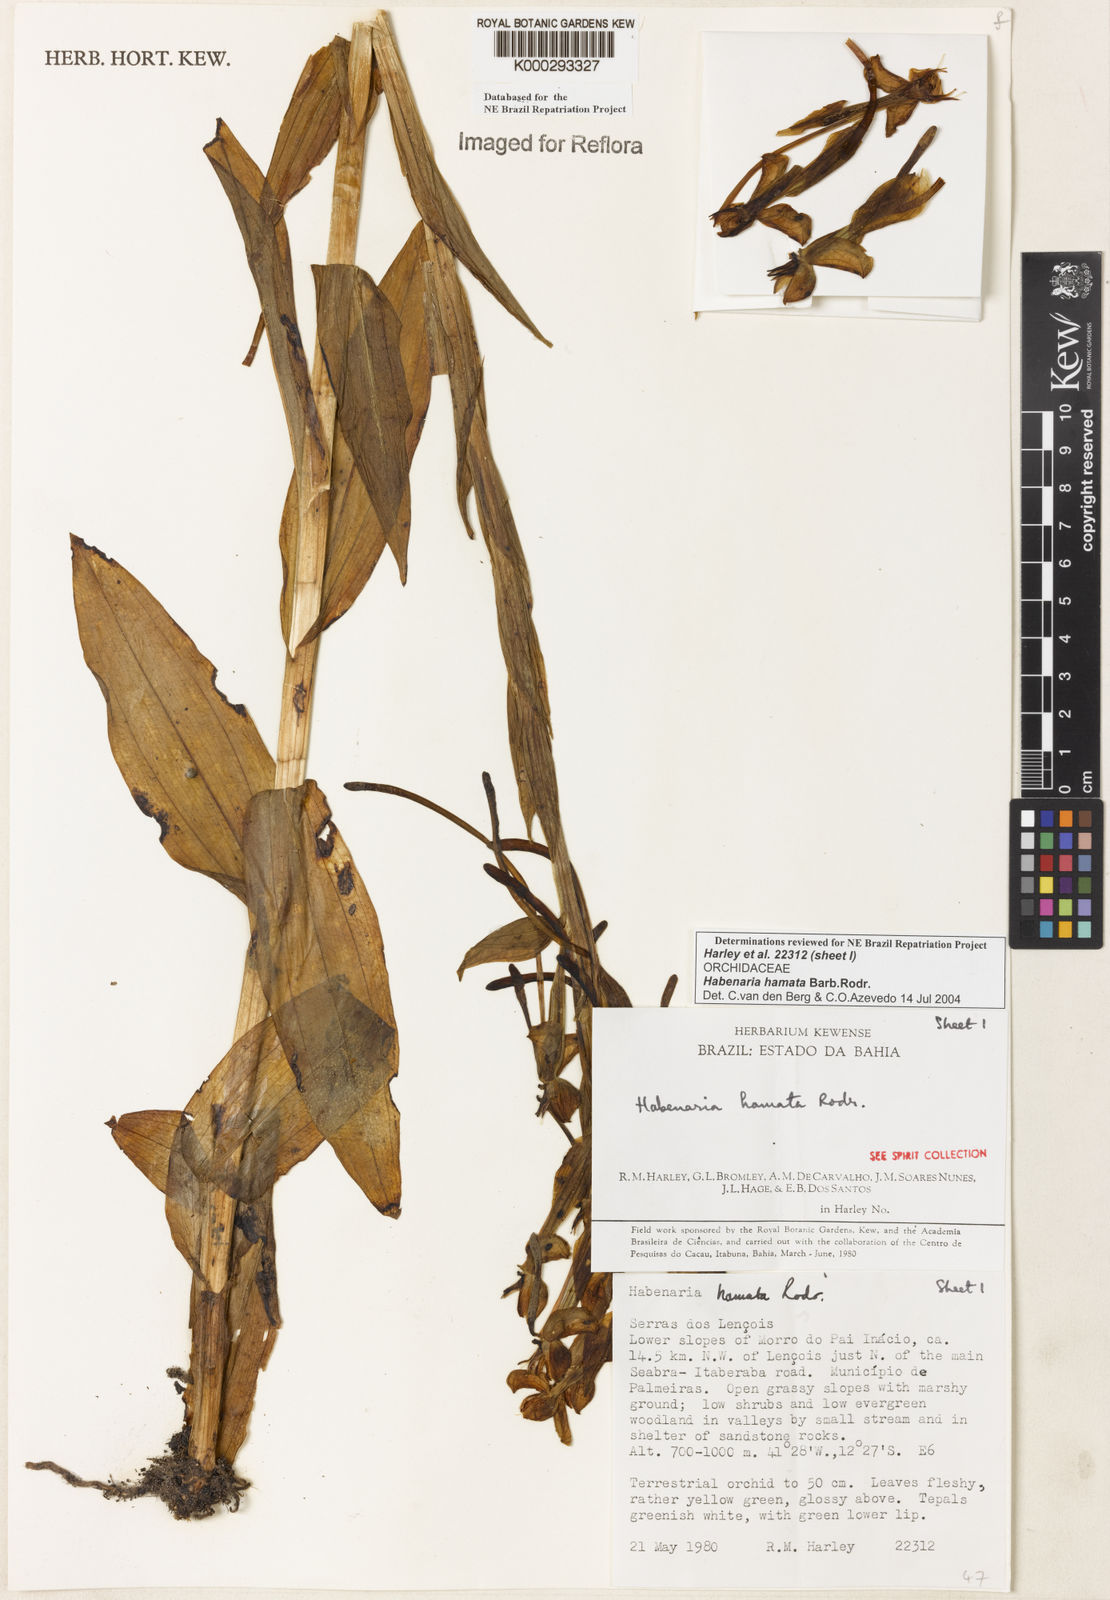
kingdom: Plantae
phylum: Tracheophyta
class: Liliopsida
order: Asparagales
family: Orchidaceae
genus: Habenaria
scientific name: Habenaria hamata
